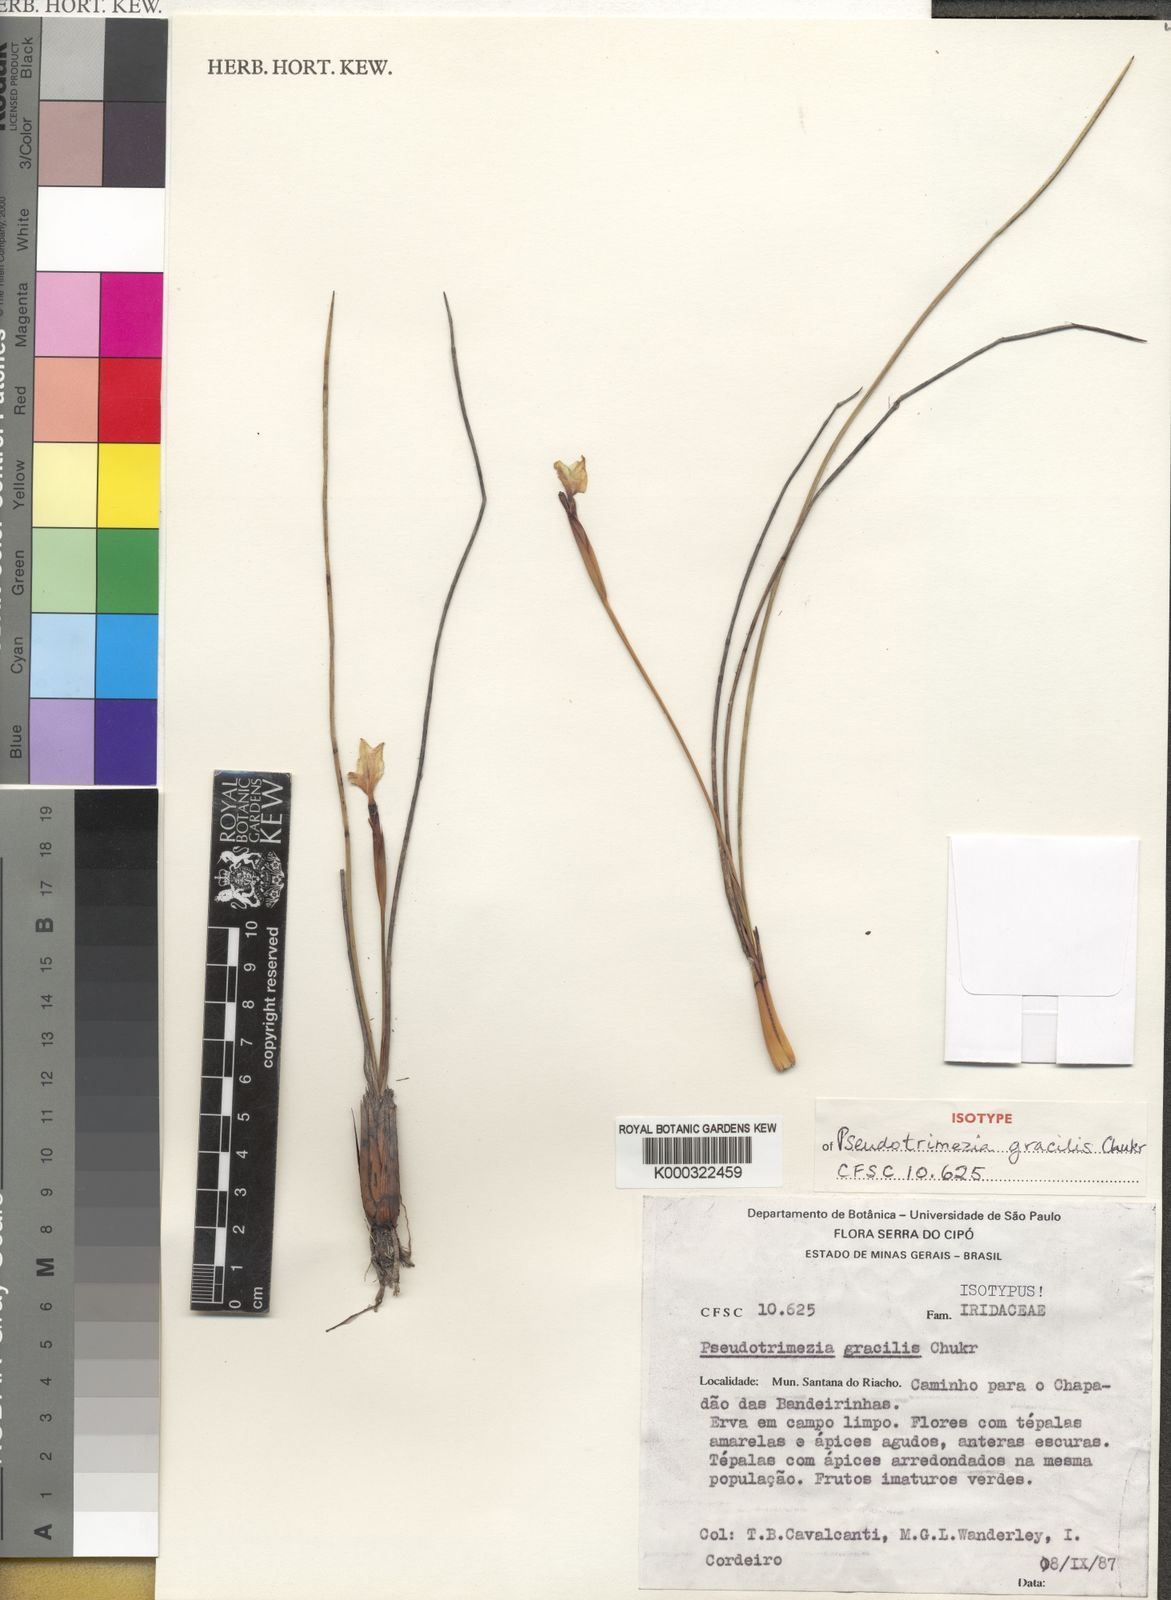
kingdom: Plantae
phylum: Tracheophyta
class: Liliopsida
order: Asparagales
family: Iridaceae
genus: Trimezia
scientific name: Trimezia concolor
